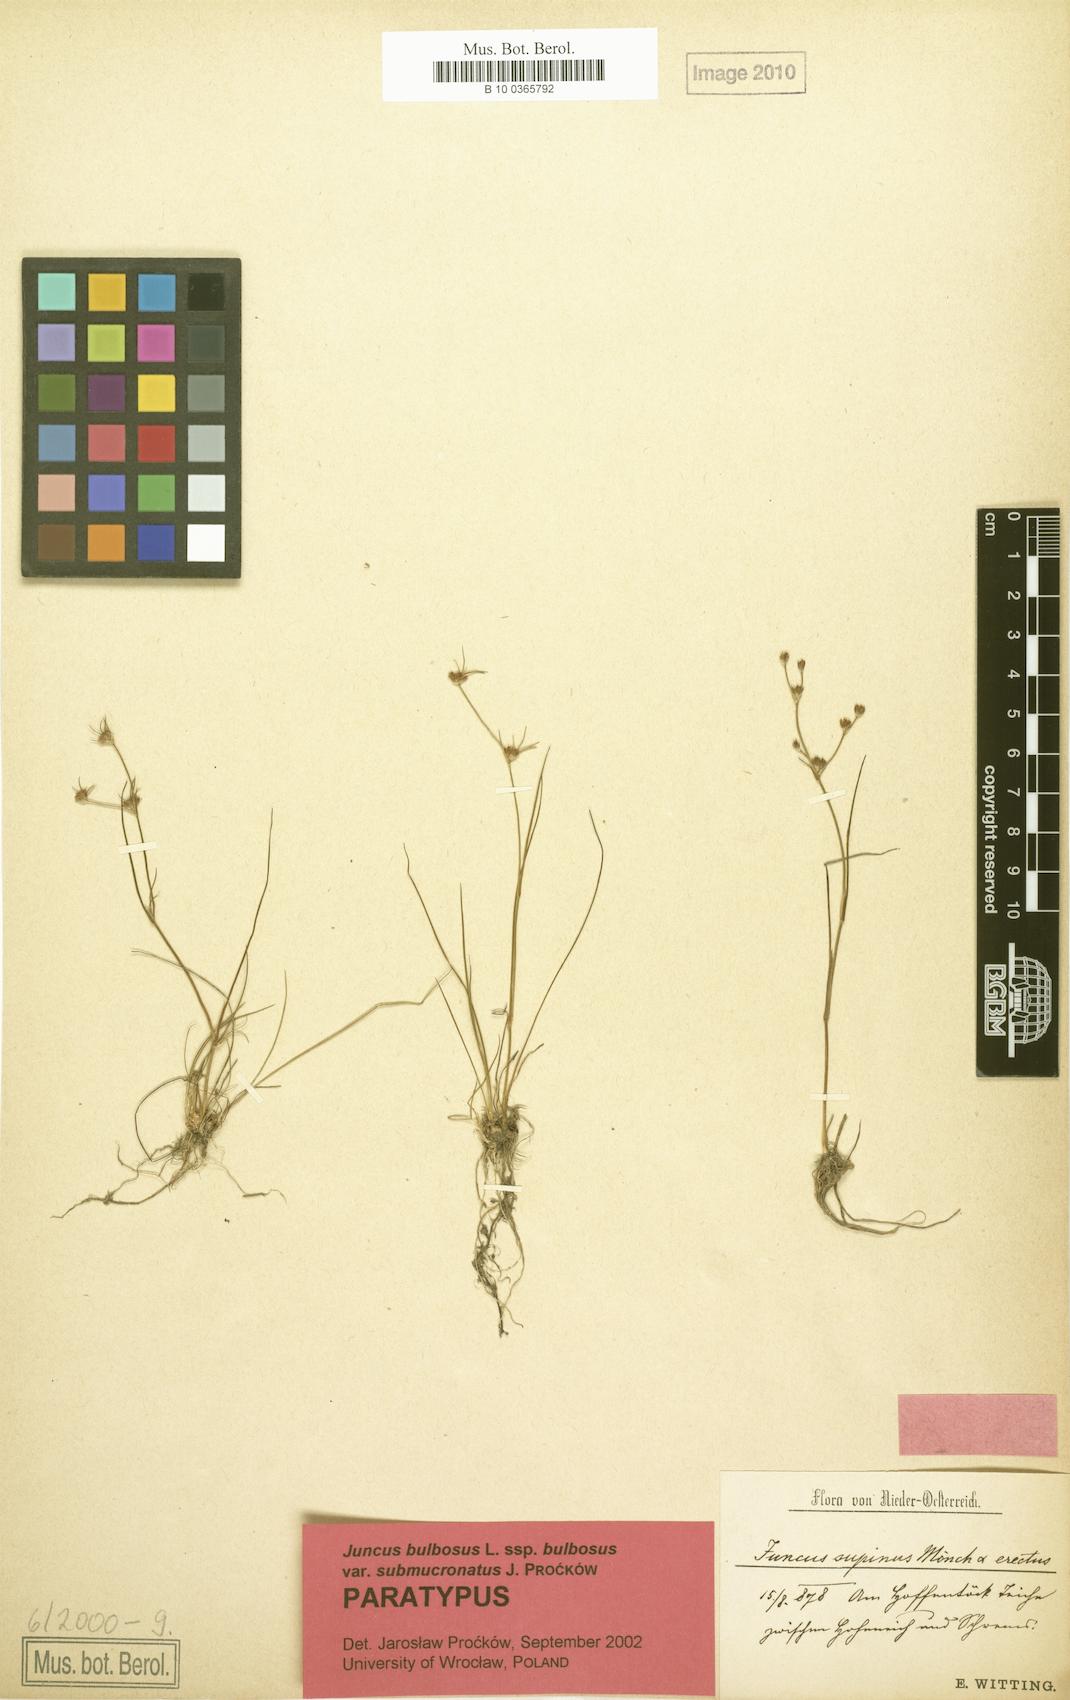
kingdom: Plantae
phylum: Tracheophyta
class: Liliopsida
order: Poales
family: Juncaceae
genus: Juncus
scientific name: Juncus bulbosus
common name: Bulbous rush
